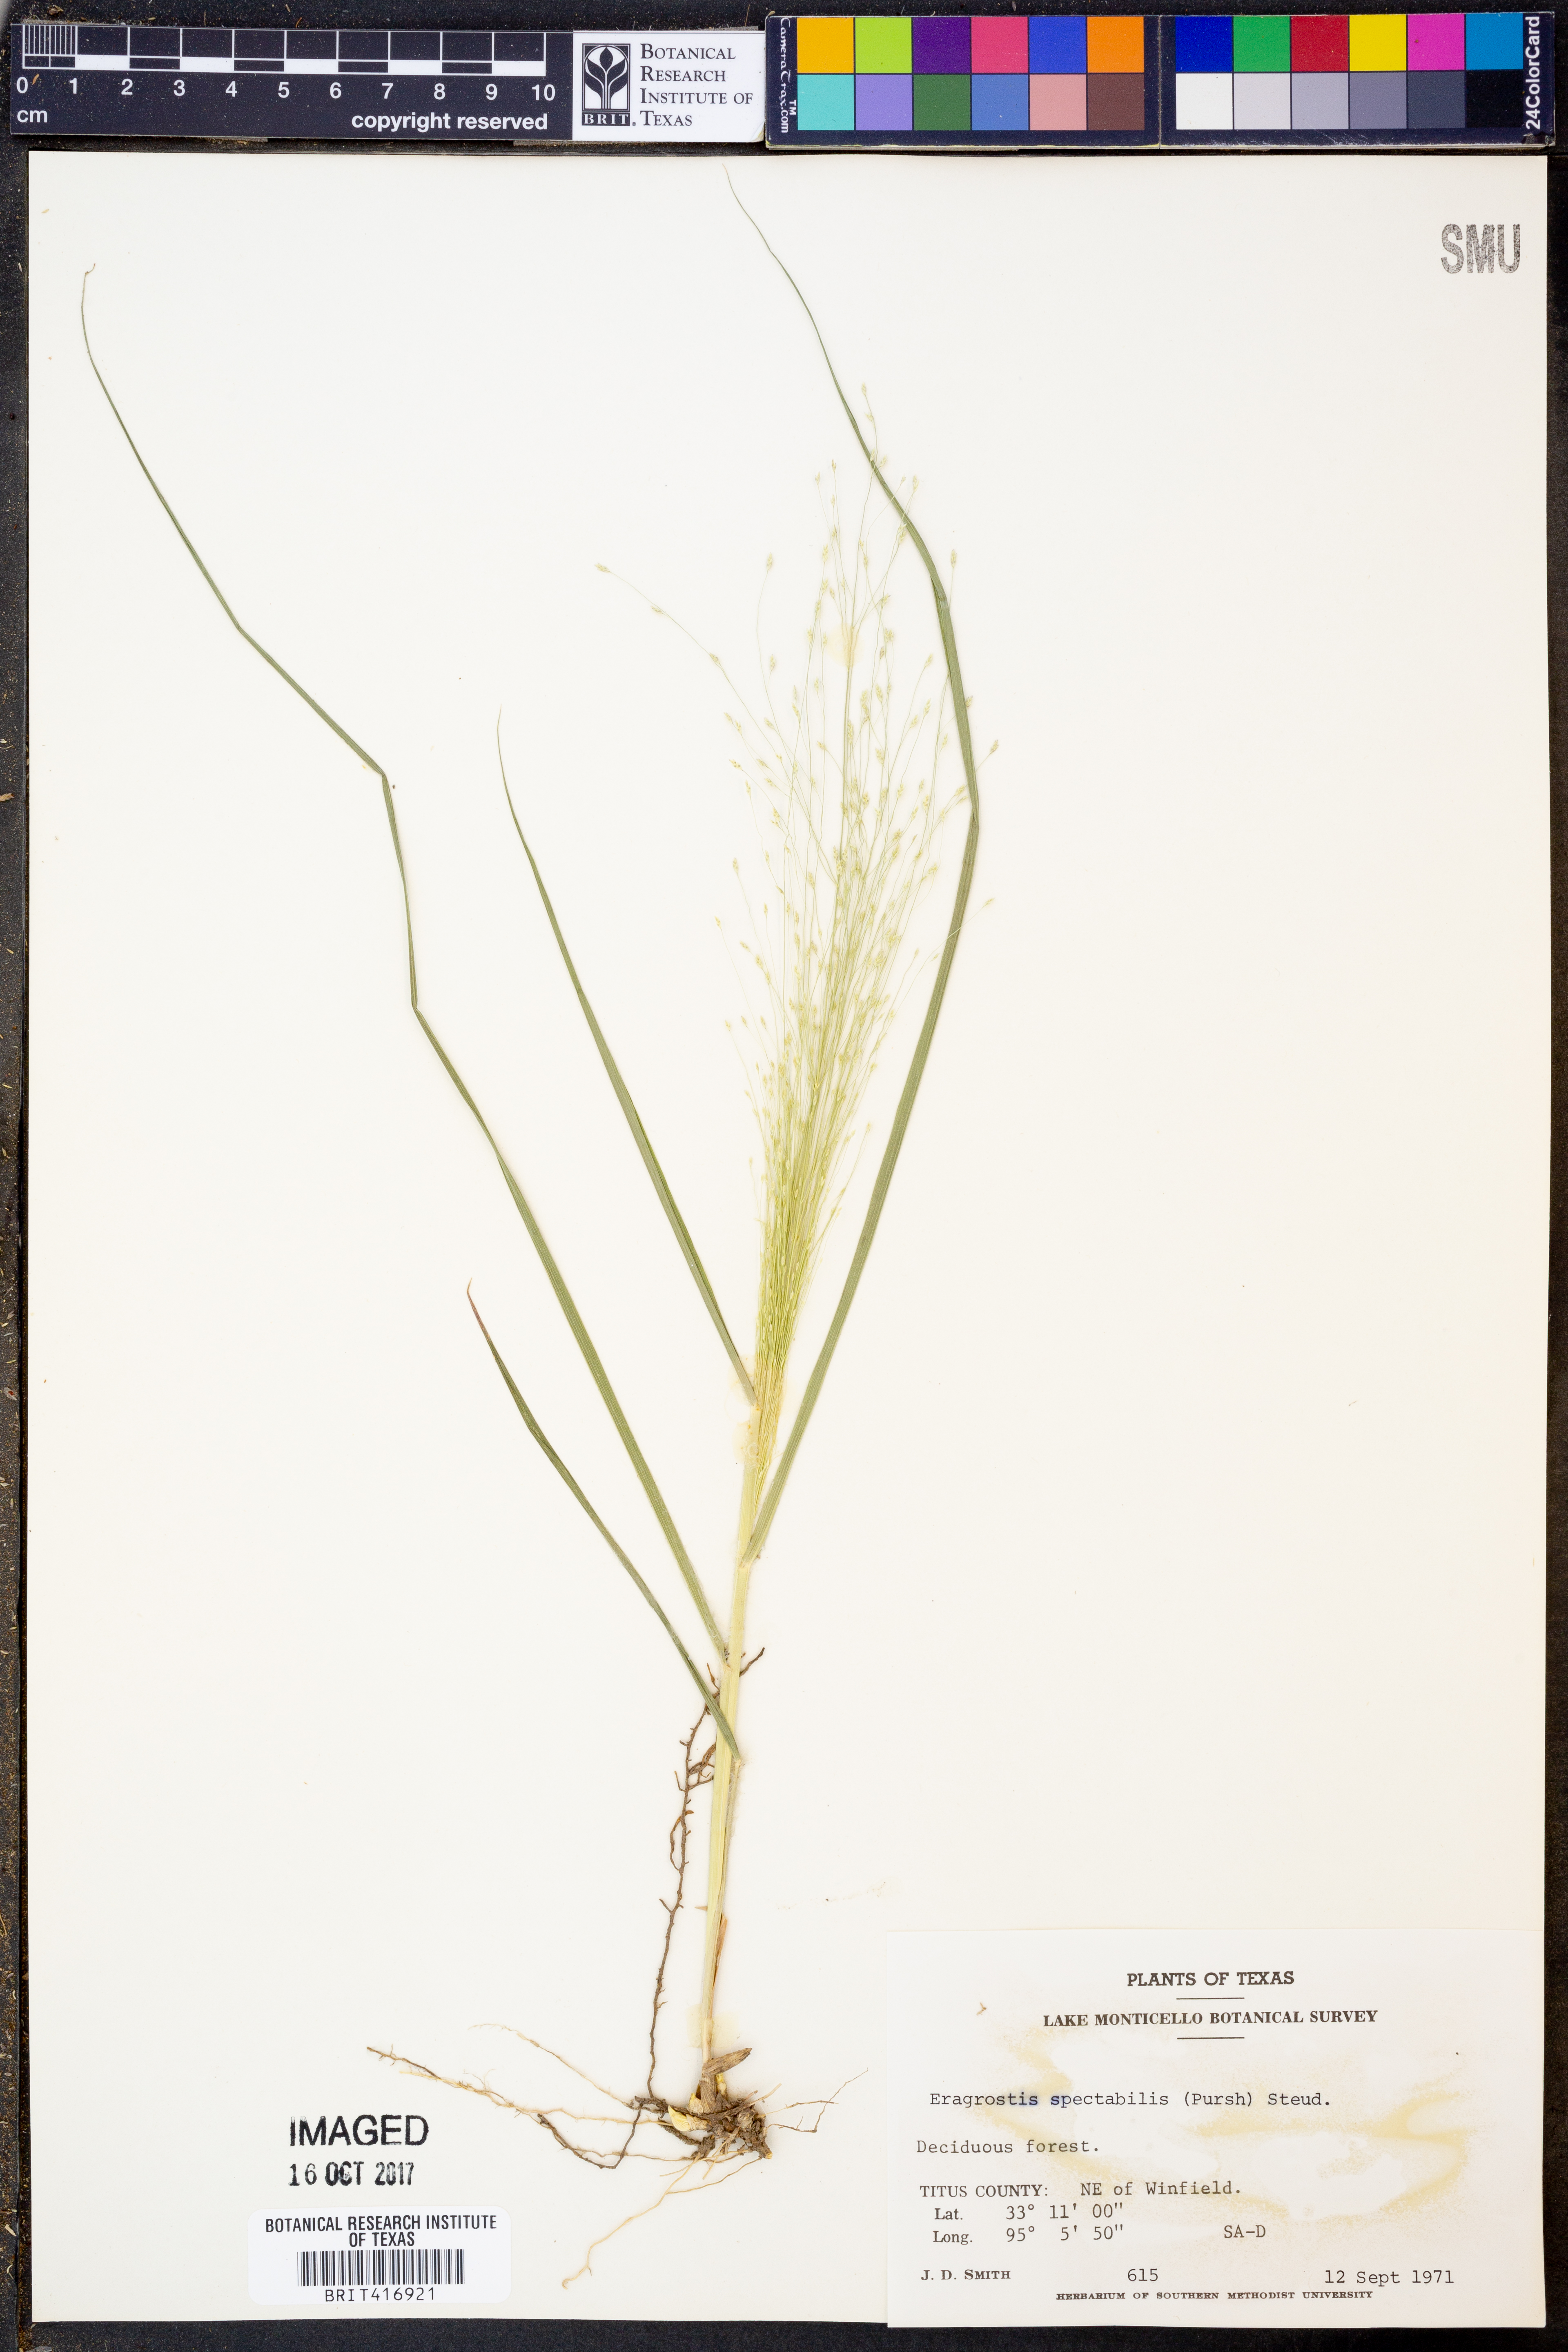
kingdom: Plantae
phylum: Tracheophyta
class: Liliopsida
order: Poales
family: Poaceae
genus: Eragrostis
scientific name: Eragrostis spectabilis
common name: Petticoat-climber
